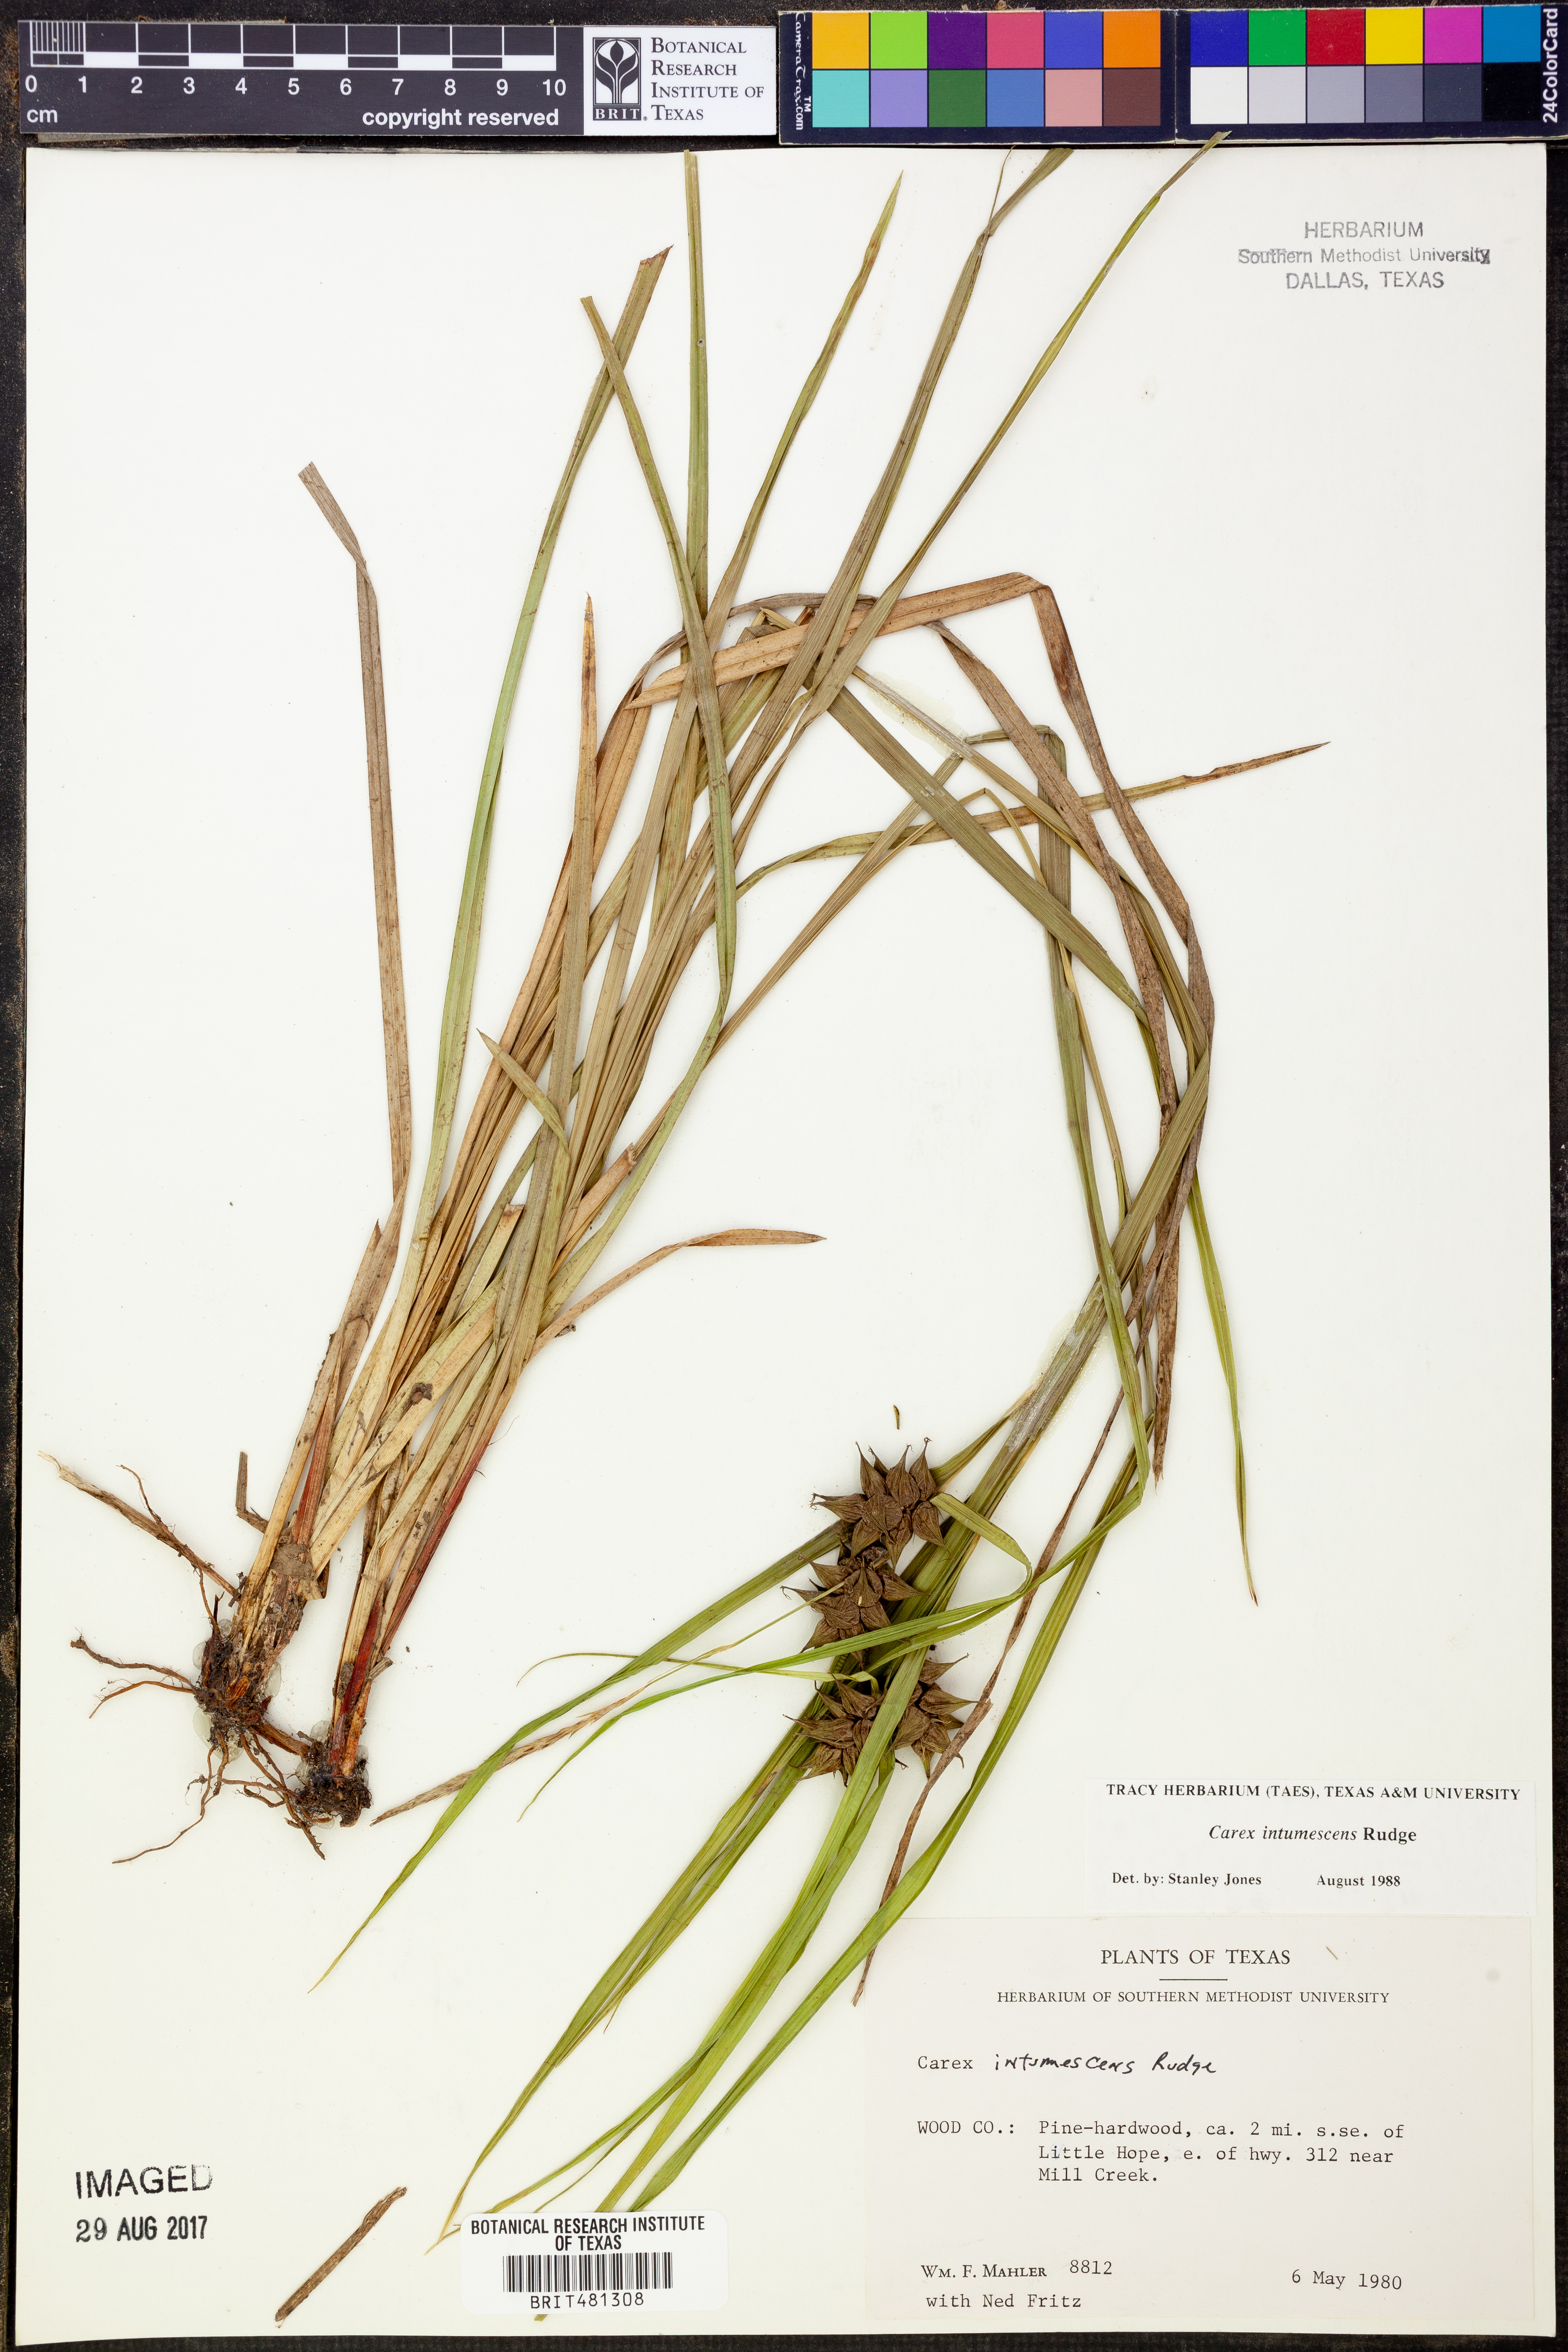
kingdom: Plantae
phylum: Tracheophyta
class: Liliopsida
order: Poales
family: Cyperaceae
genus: Carex
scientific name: Carex intumescens
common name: Greater bladder sedge
